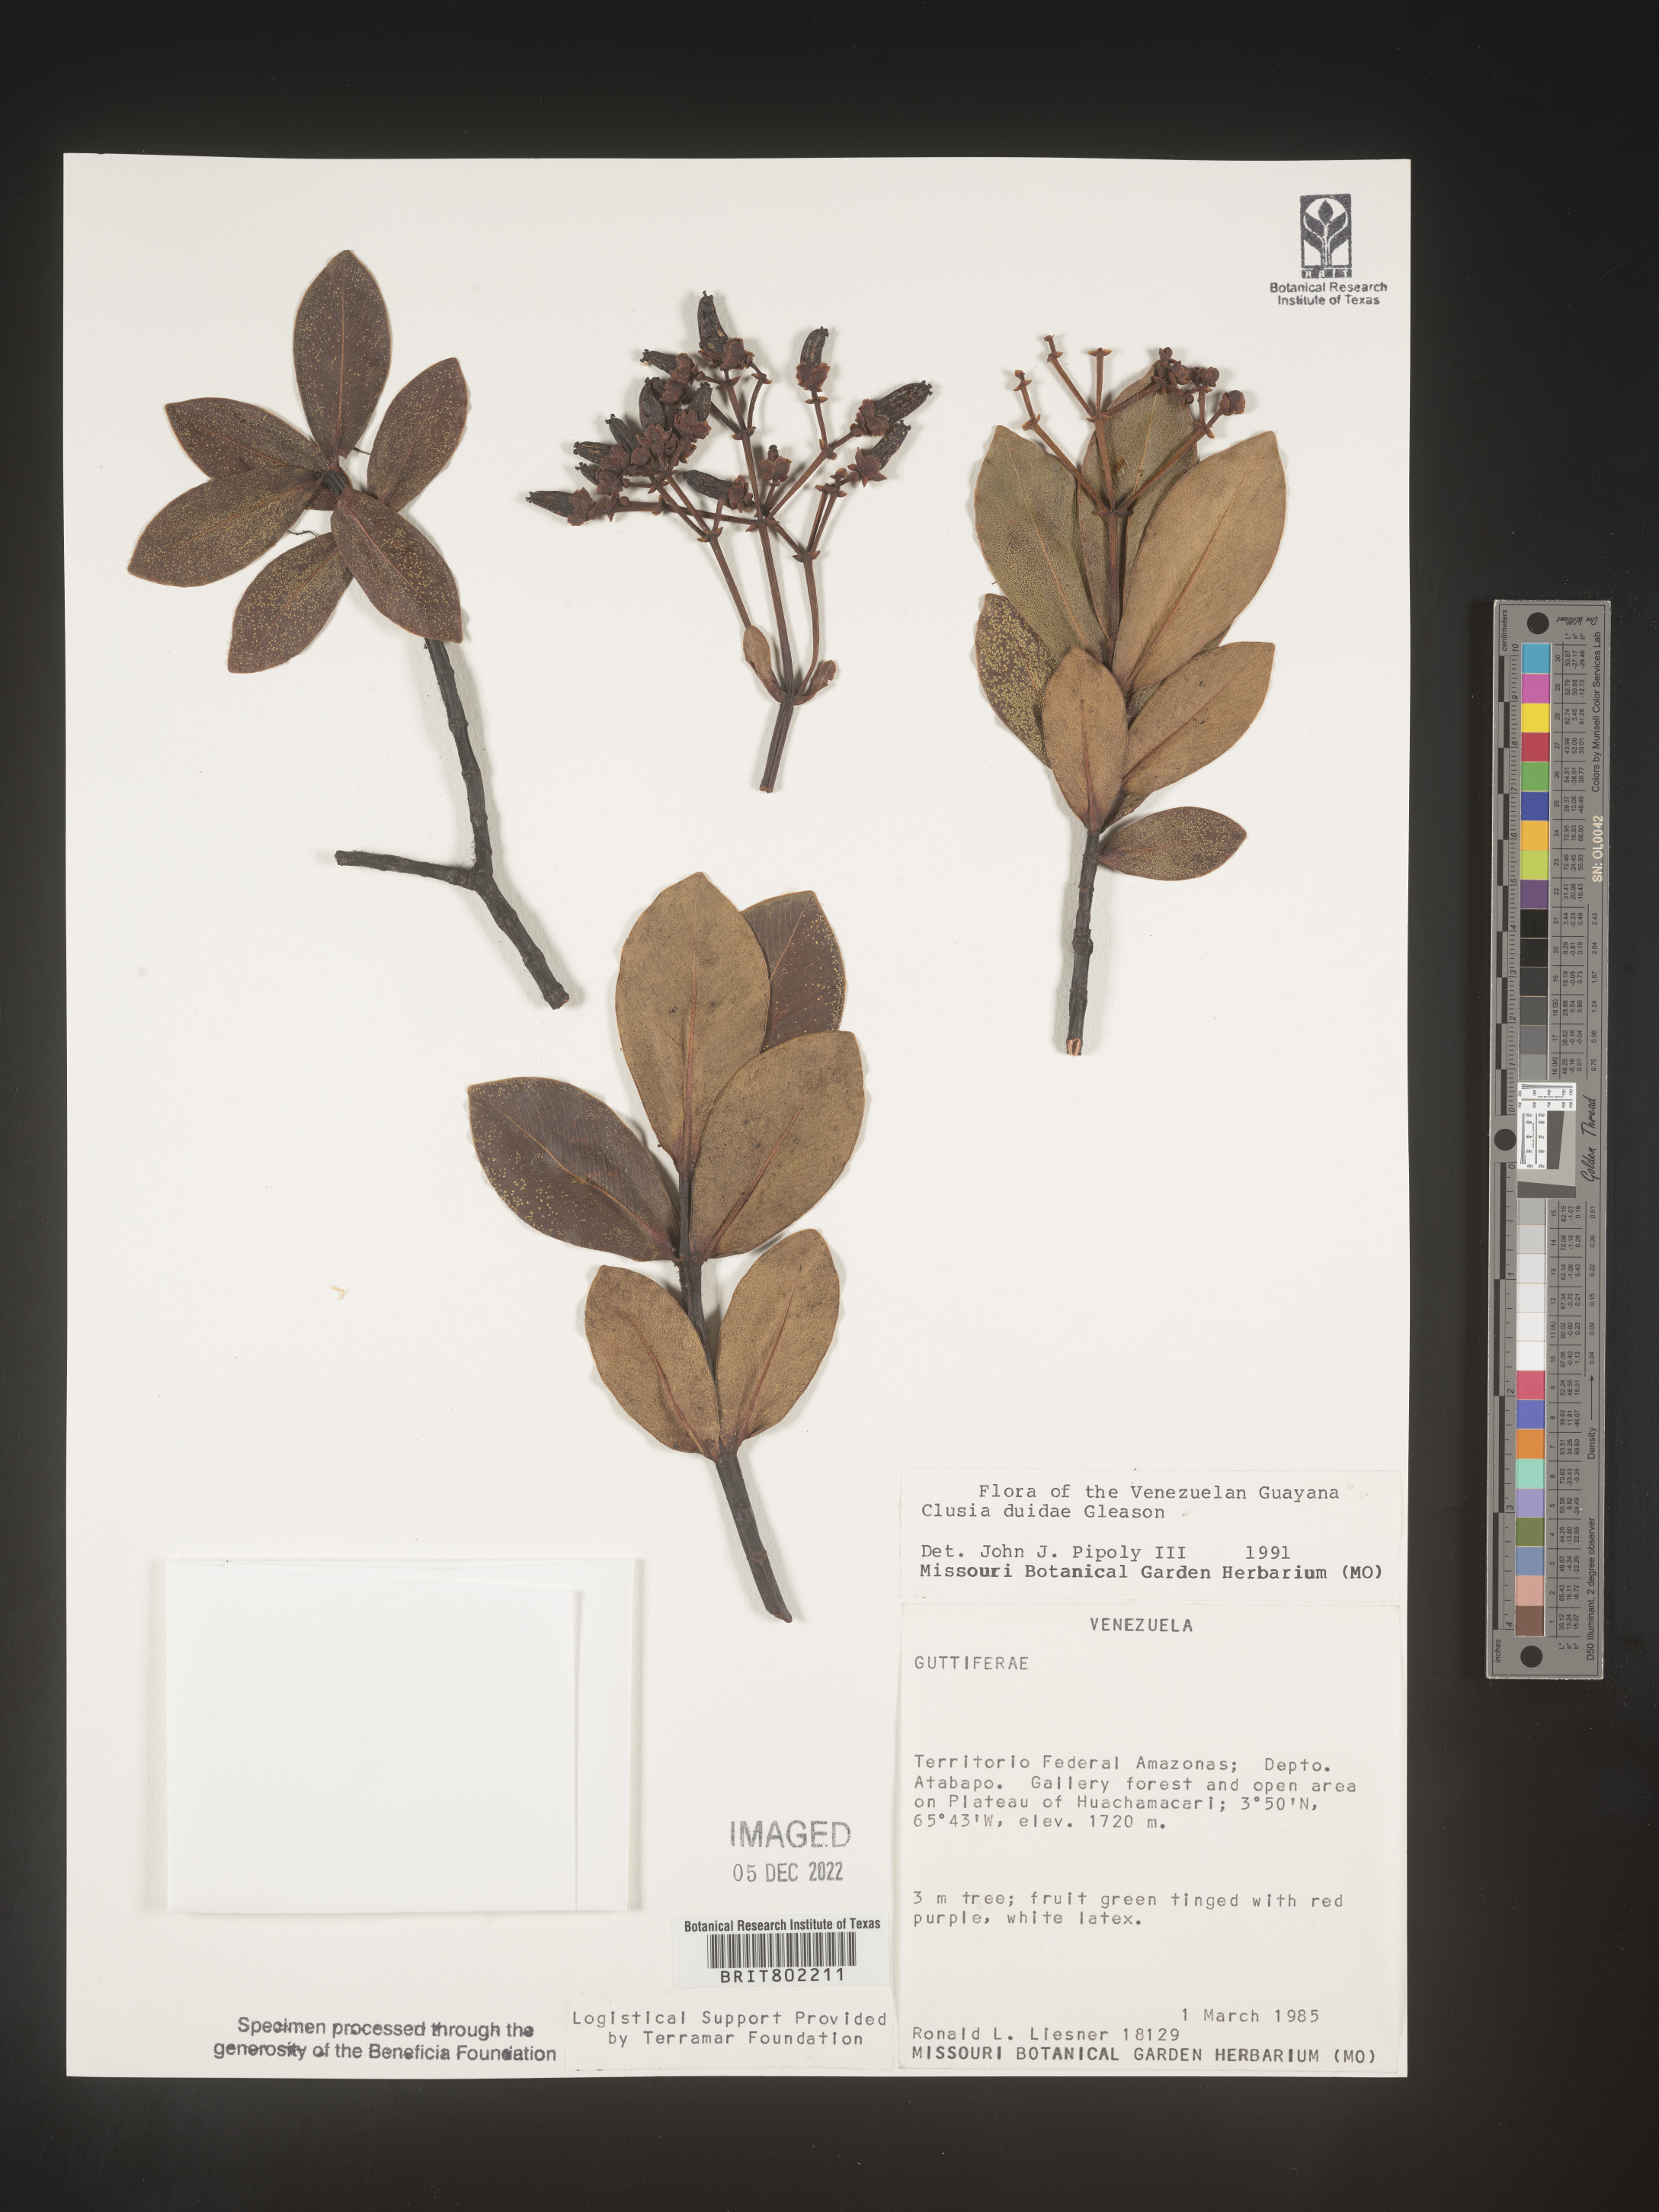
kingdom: Plantae
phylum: Tracheophyta
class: Magnoliopsida
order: Malpighiales
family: Clusiaceae
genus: Clusia
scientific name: Clusia
